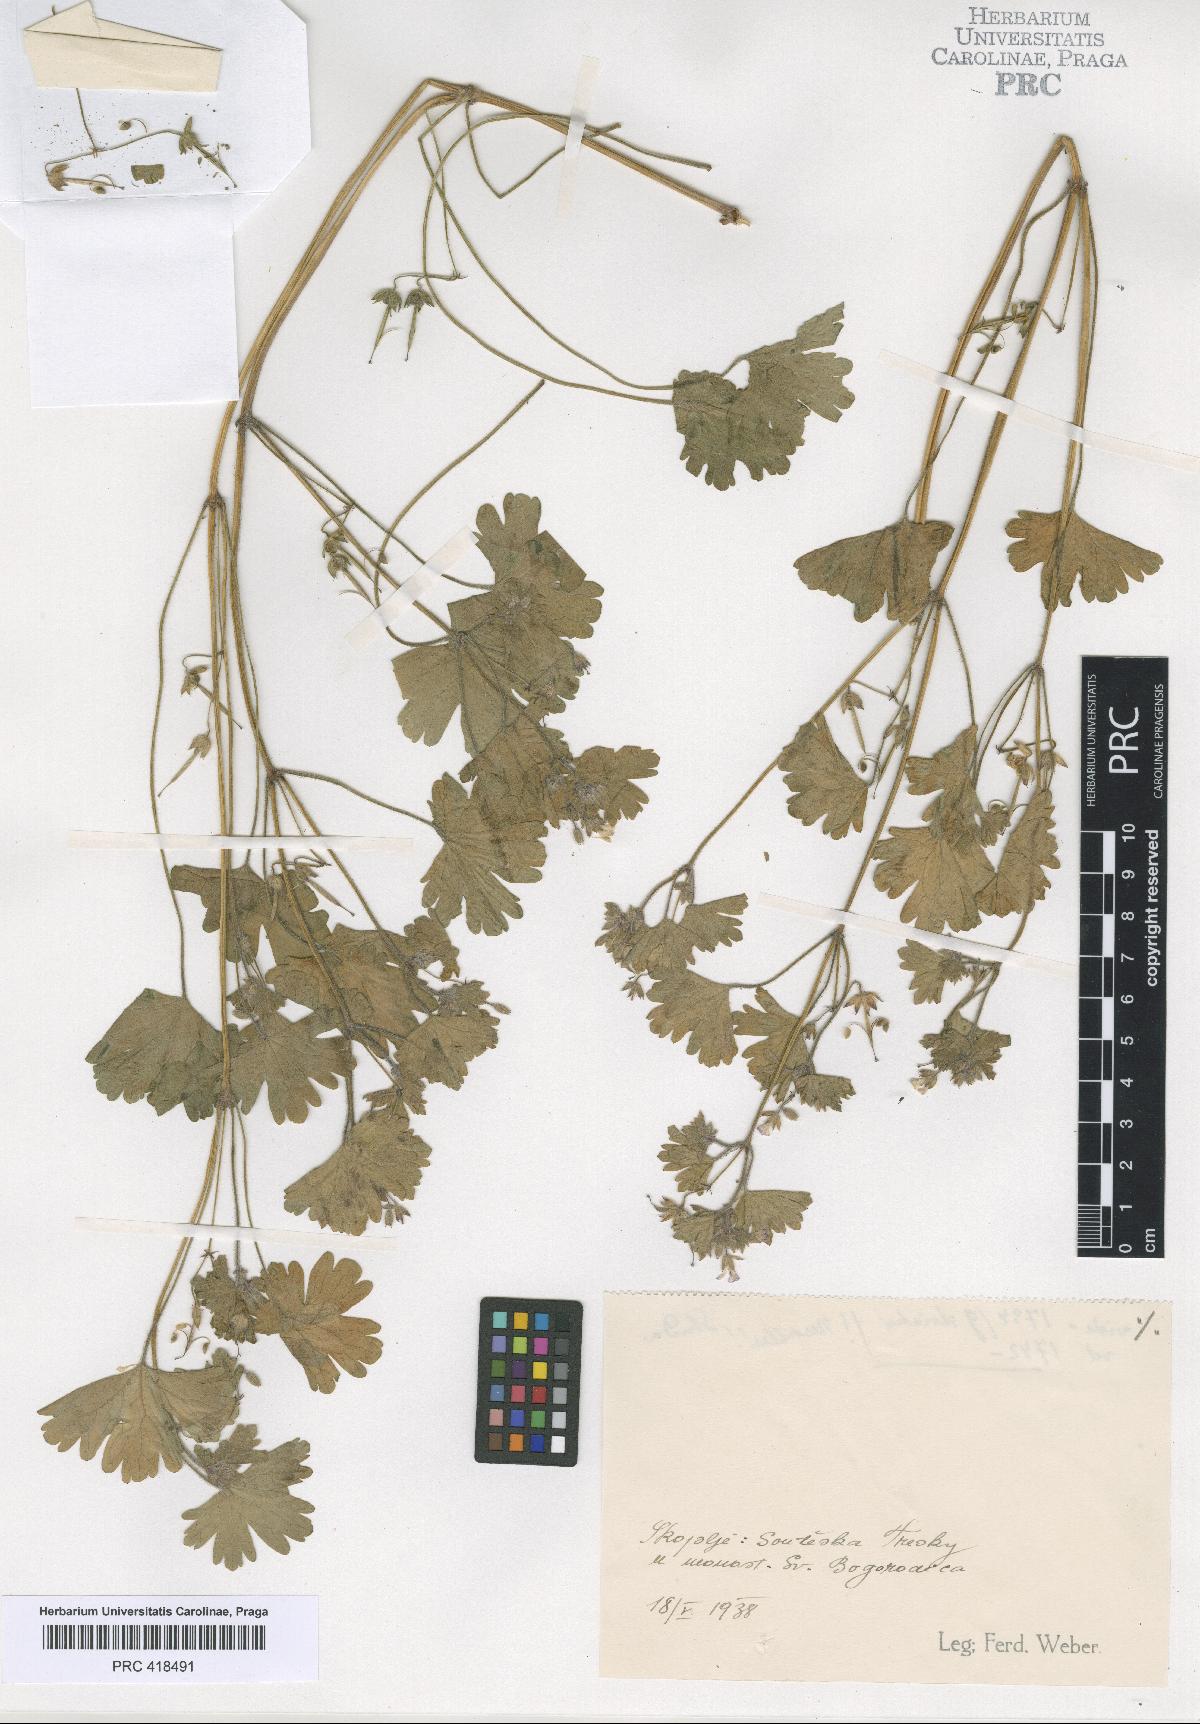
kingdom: Plantae
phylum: Tracheophyta
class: Magnoliopsida
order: Geraniales
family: Geraniaceae
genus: Geranium
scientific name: Geranium rotundifolium
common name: Round-leaved crane's-bill
